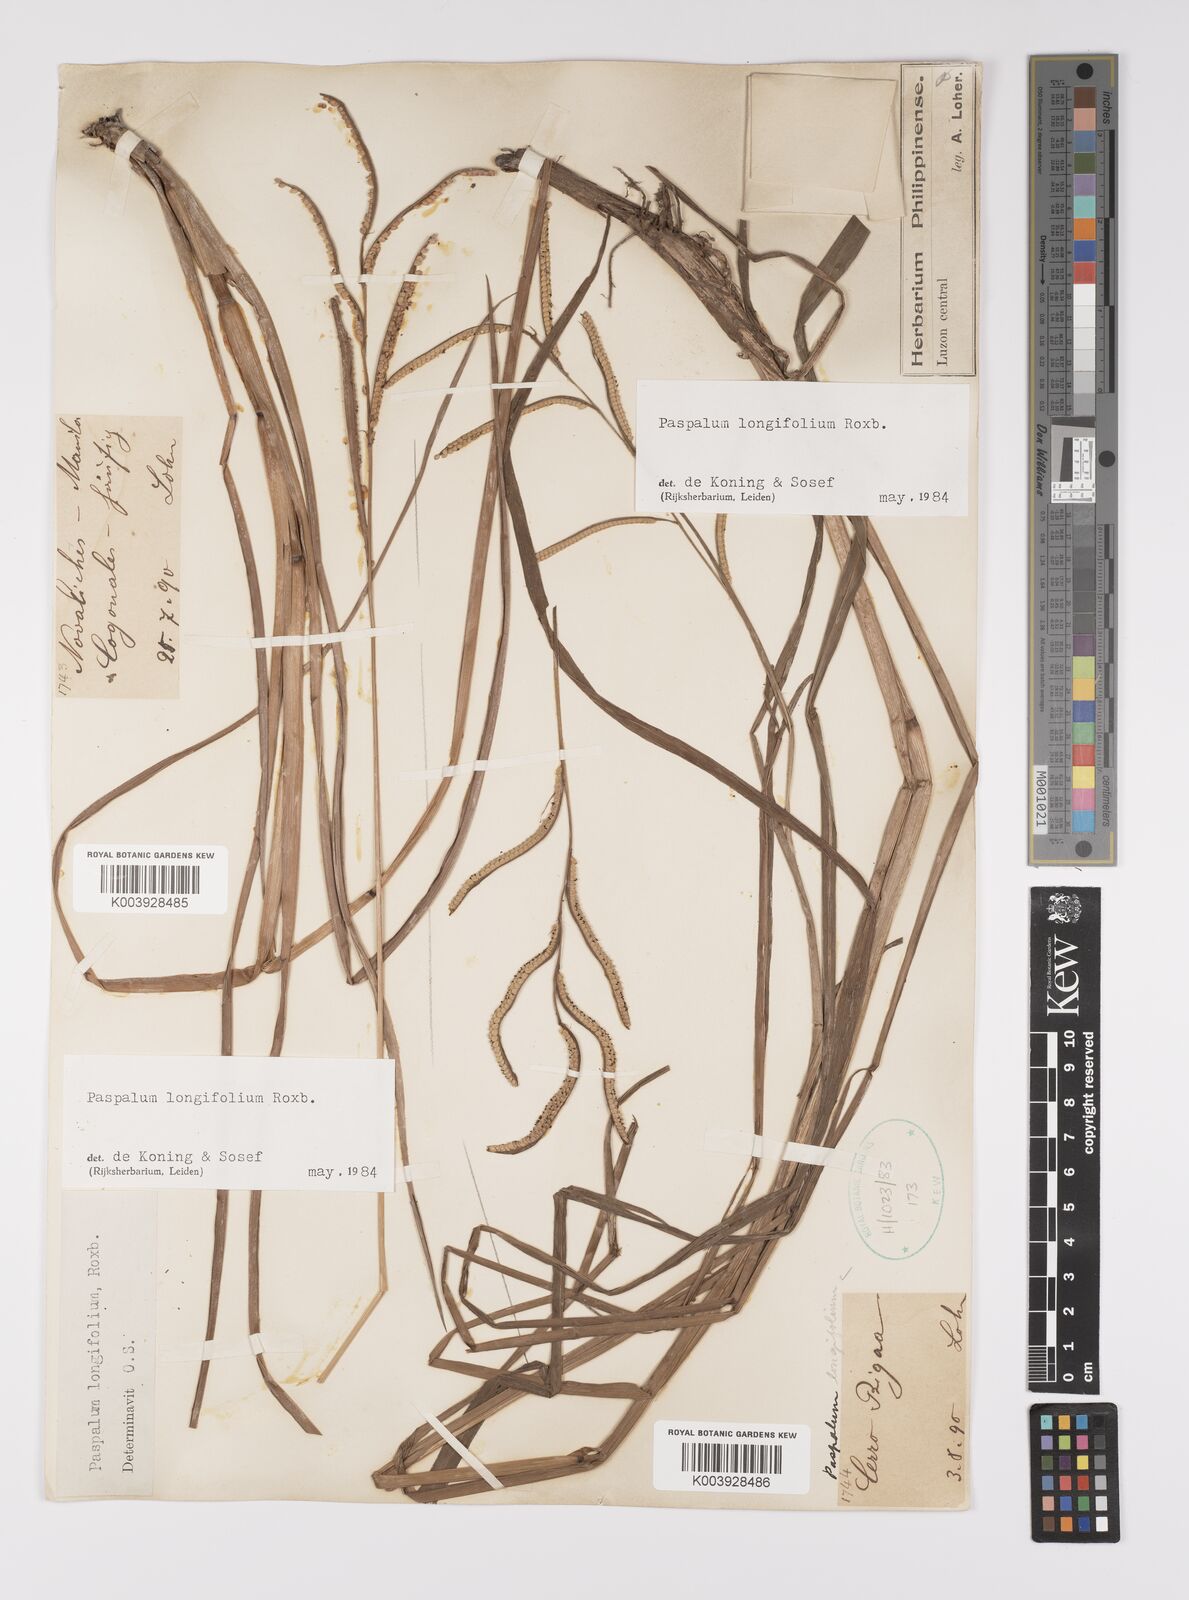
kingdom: Plantae
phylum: Tracheophyta
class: Liliopsida
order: Poales
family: Poaceae
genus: Paspalum
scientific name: Paspalum sumatrense
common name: Long-leaved paspalum
